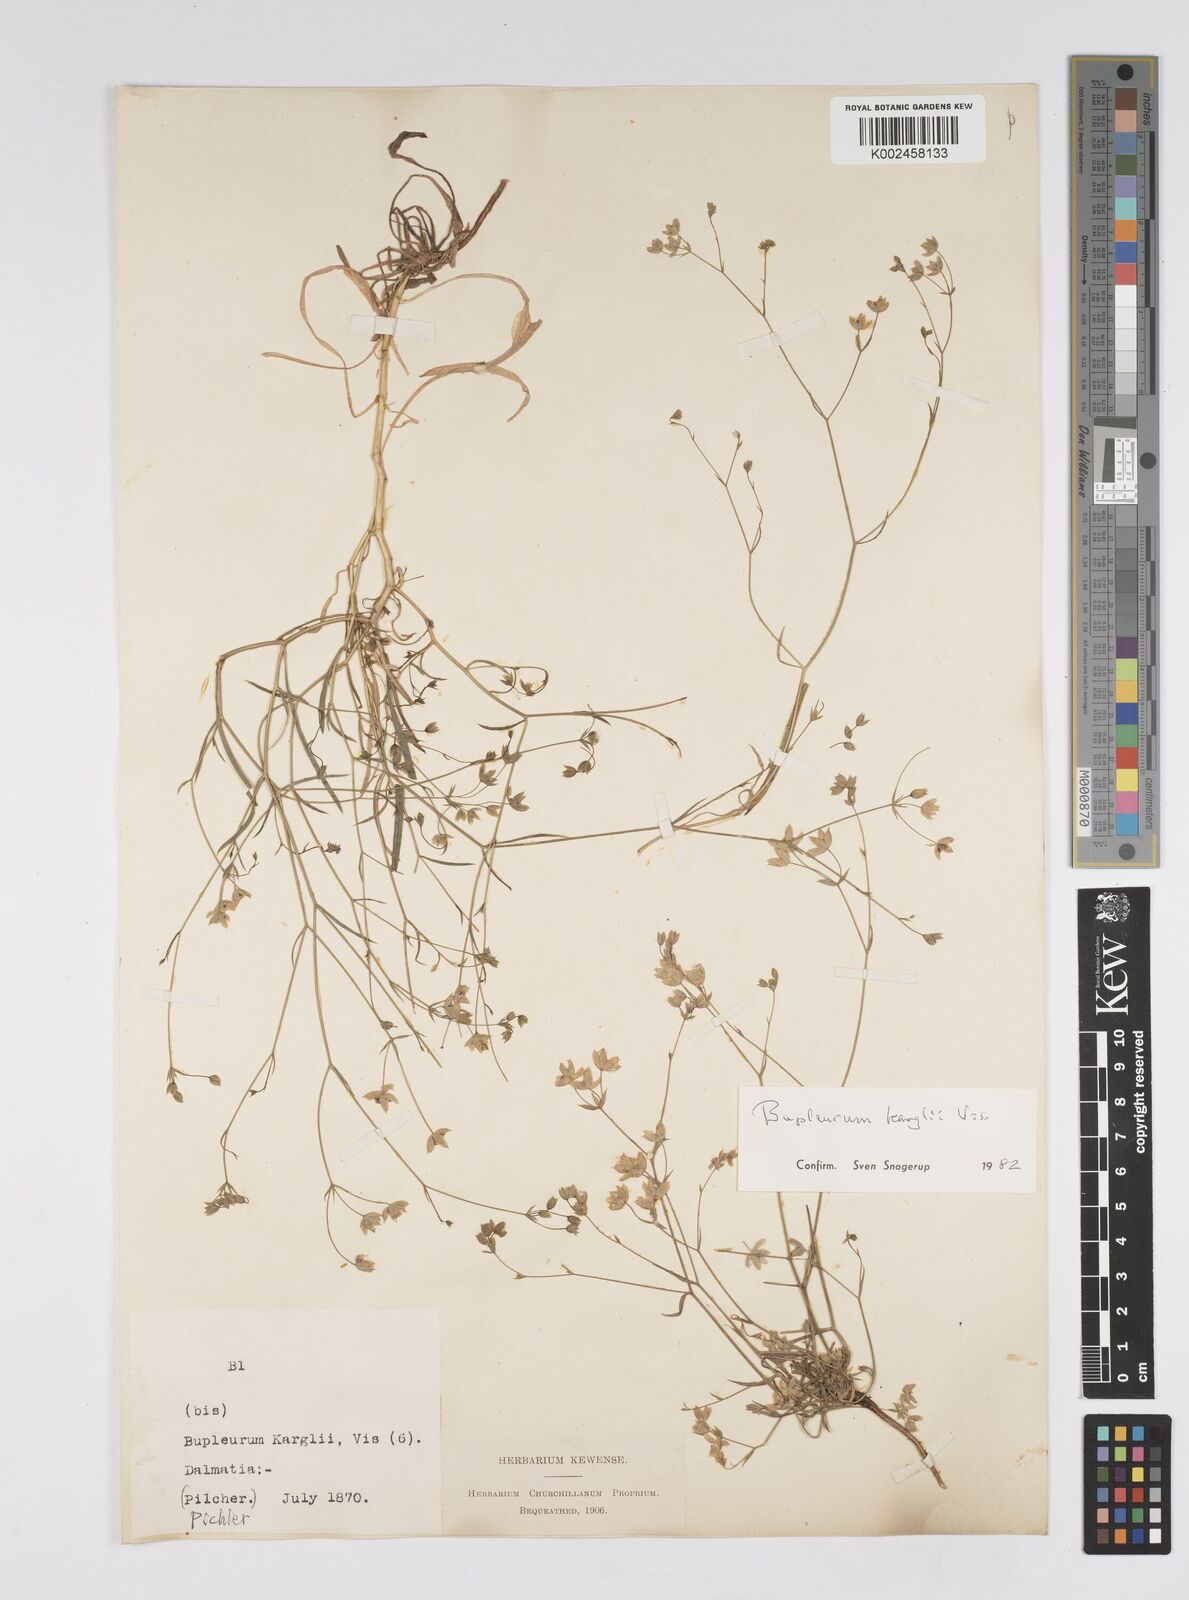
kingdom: Plantae
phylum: Tracheophyta
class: Magnoliopsida
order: Apiales
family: Apiaceae
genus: Bupleurum
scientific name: Bupleurum karglii
